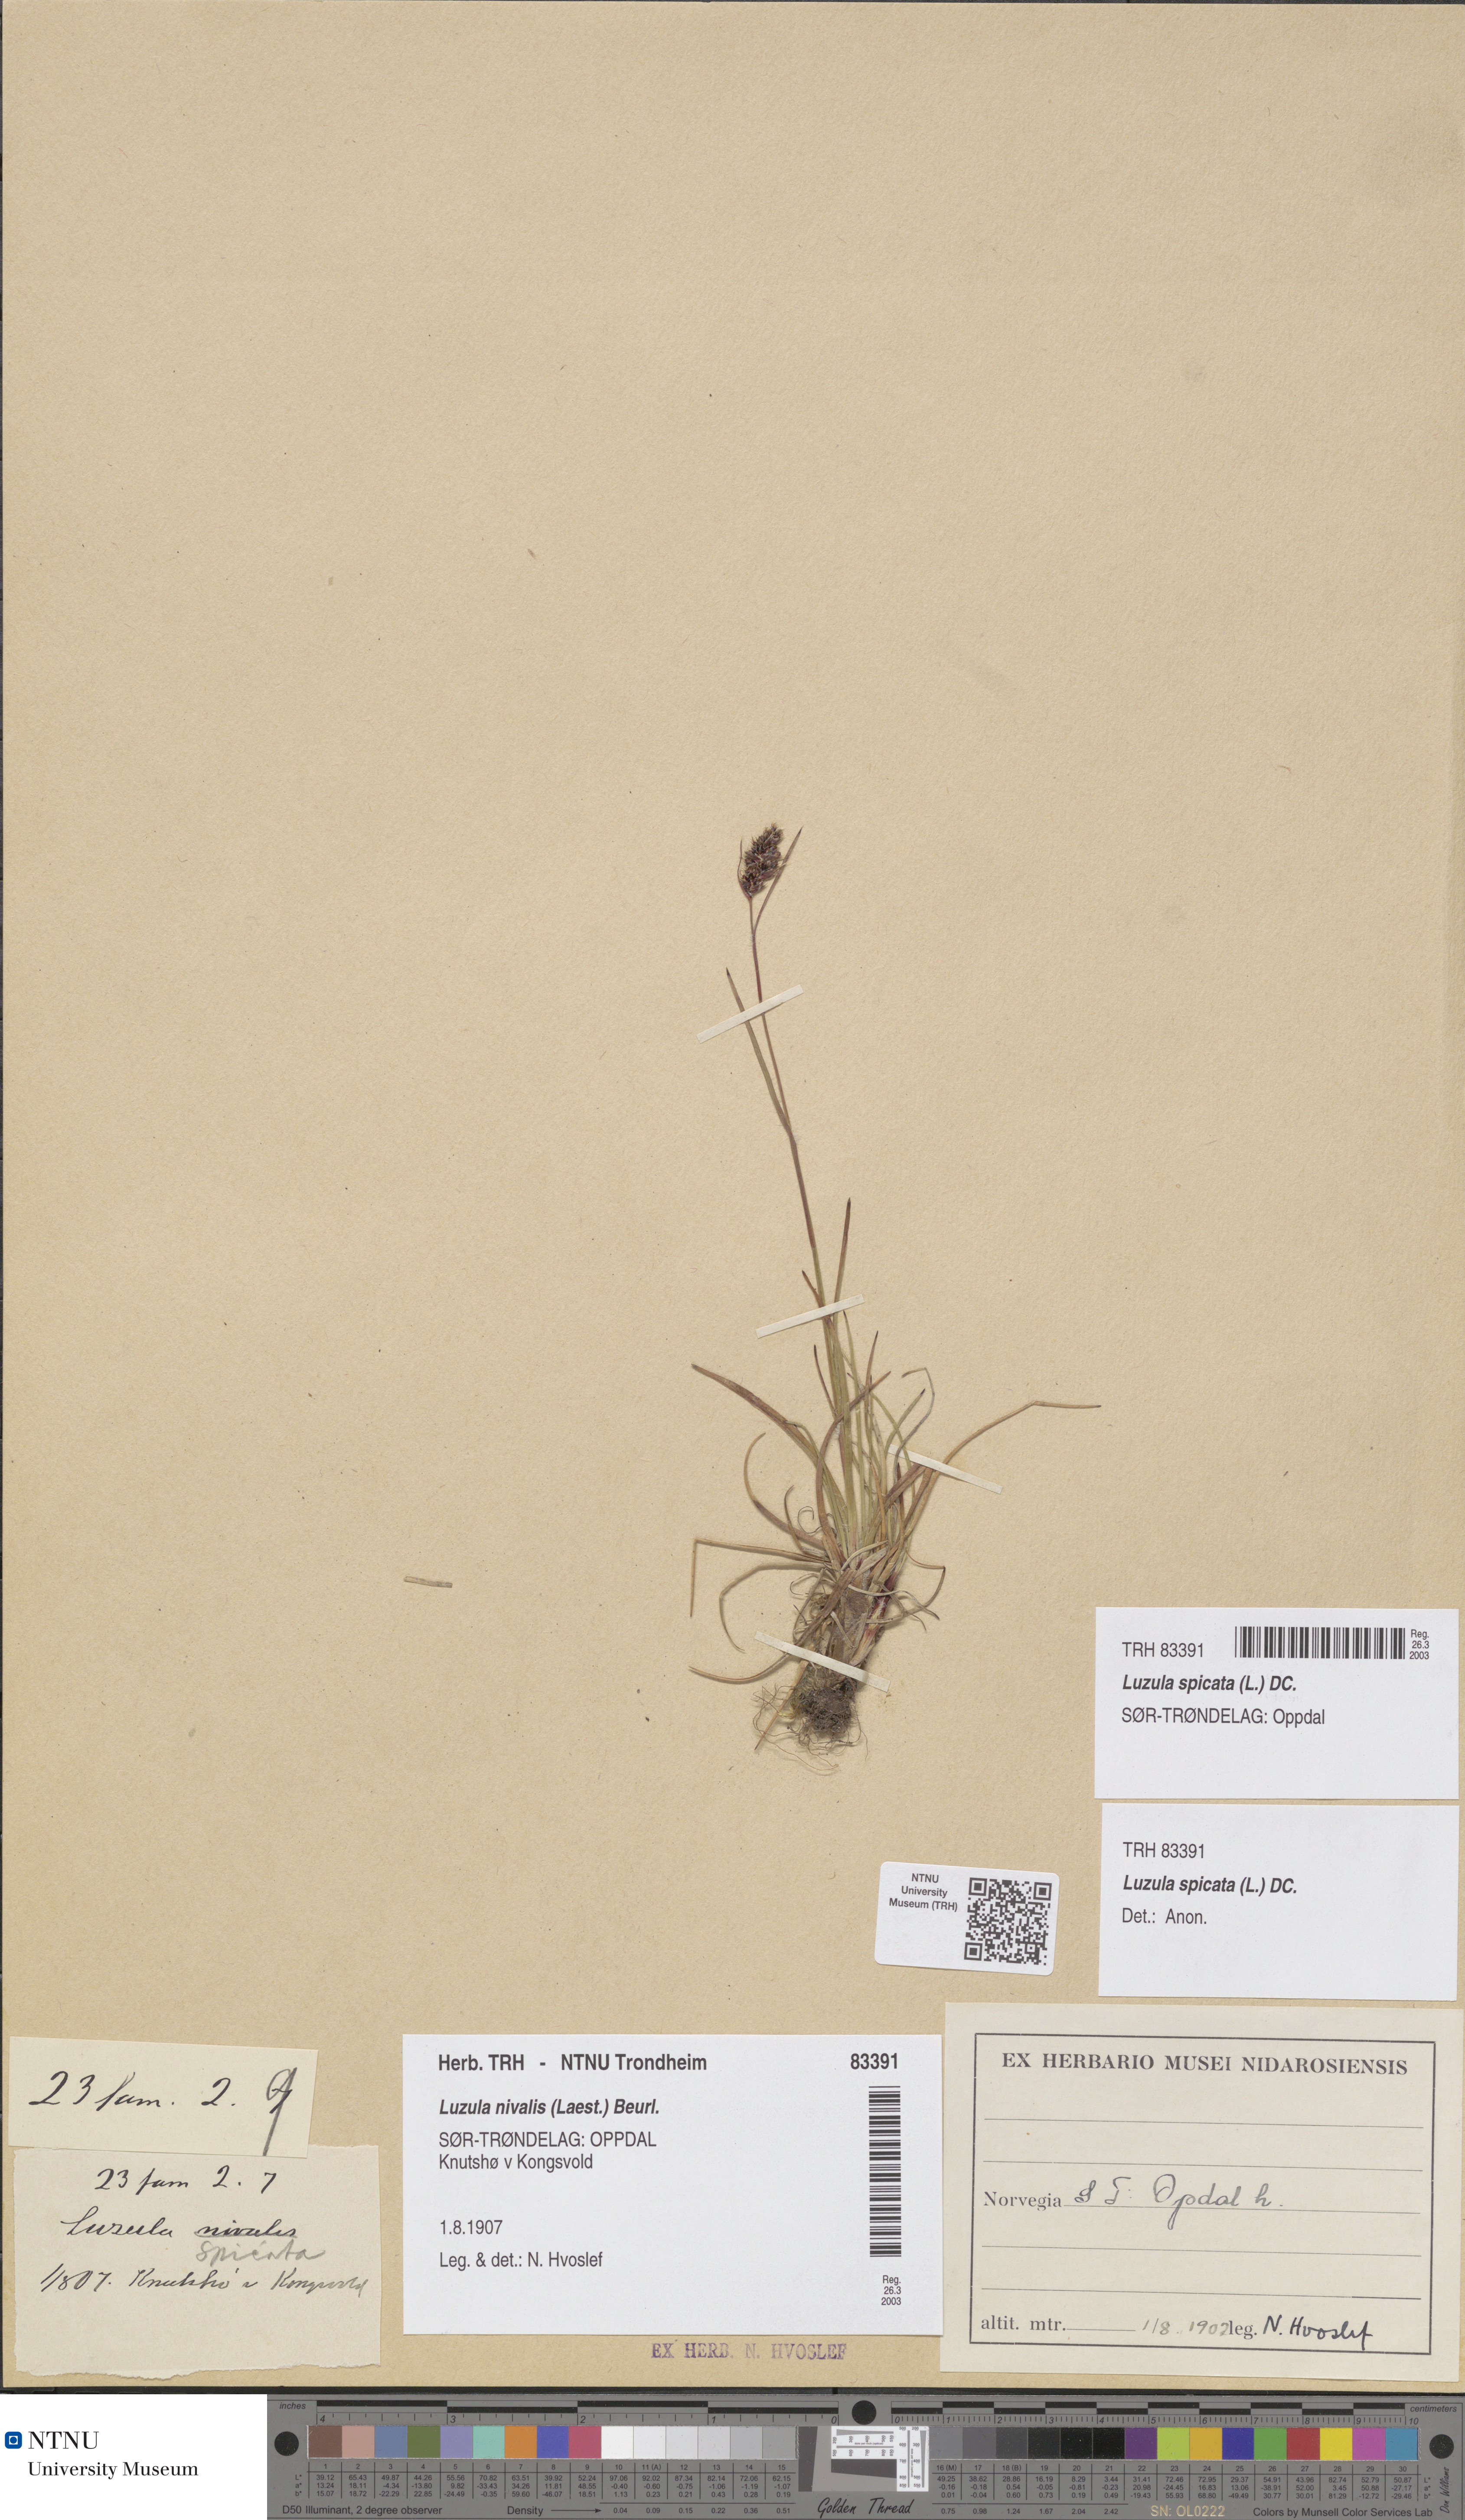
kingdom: Plantae
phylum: Tracheophyta
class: Liliopsida
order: Poales
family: Juncaceae
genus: Luzula
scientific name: Luzula spicata
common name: Spiked wood-rush
